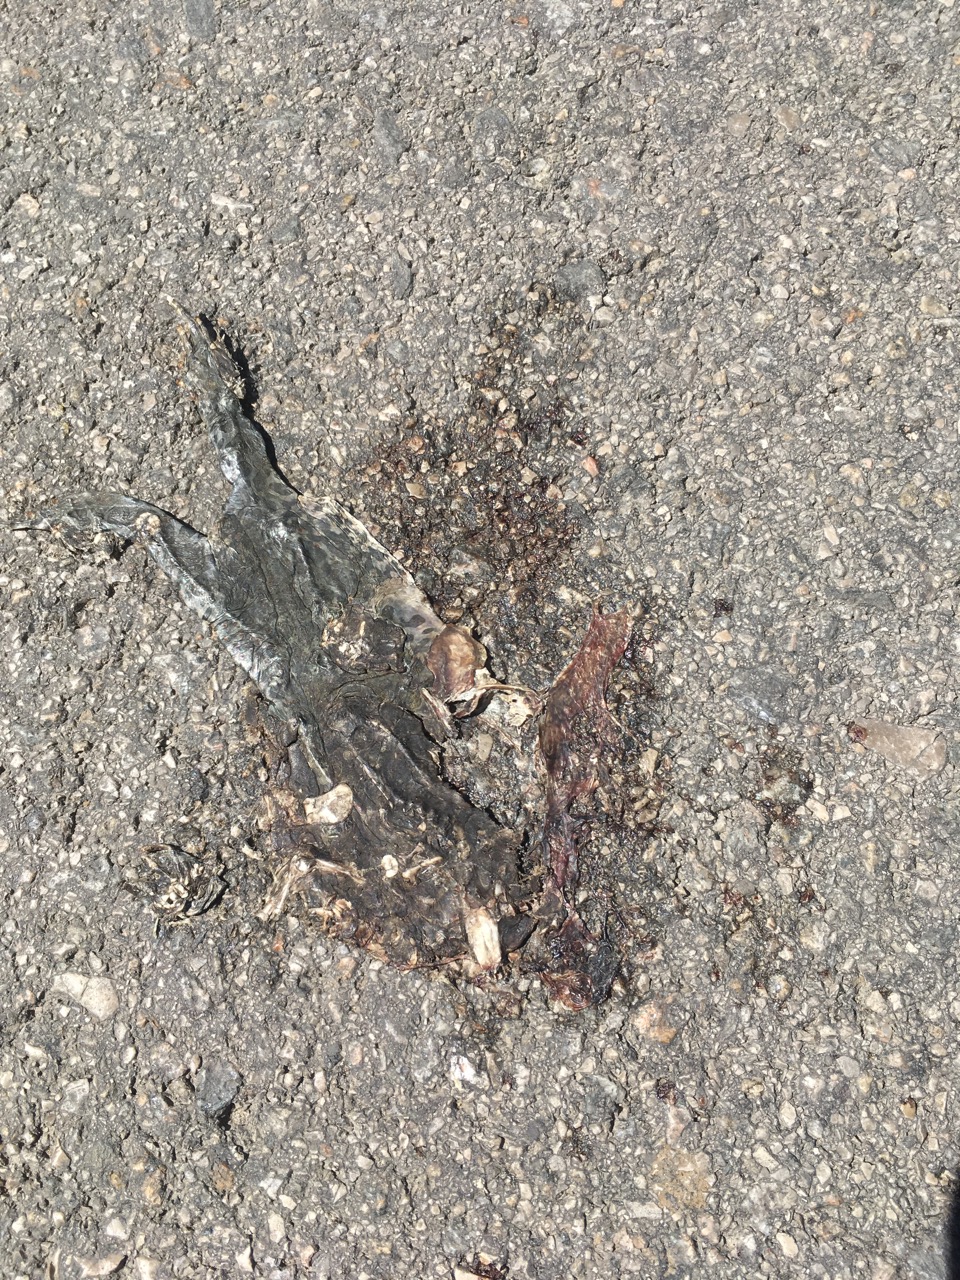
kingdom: Animalia
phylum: Chordata
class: Amphibia
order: Anura
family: Bufonidae
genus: Bufotes
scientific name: Bufotes viridis
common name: European green toad
